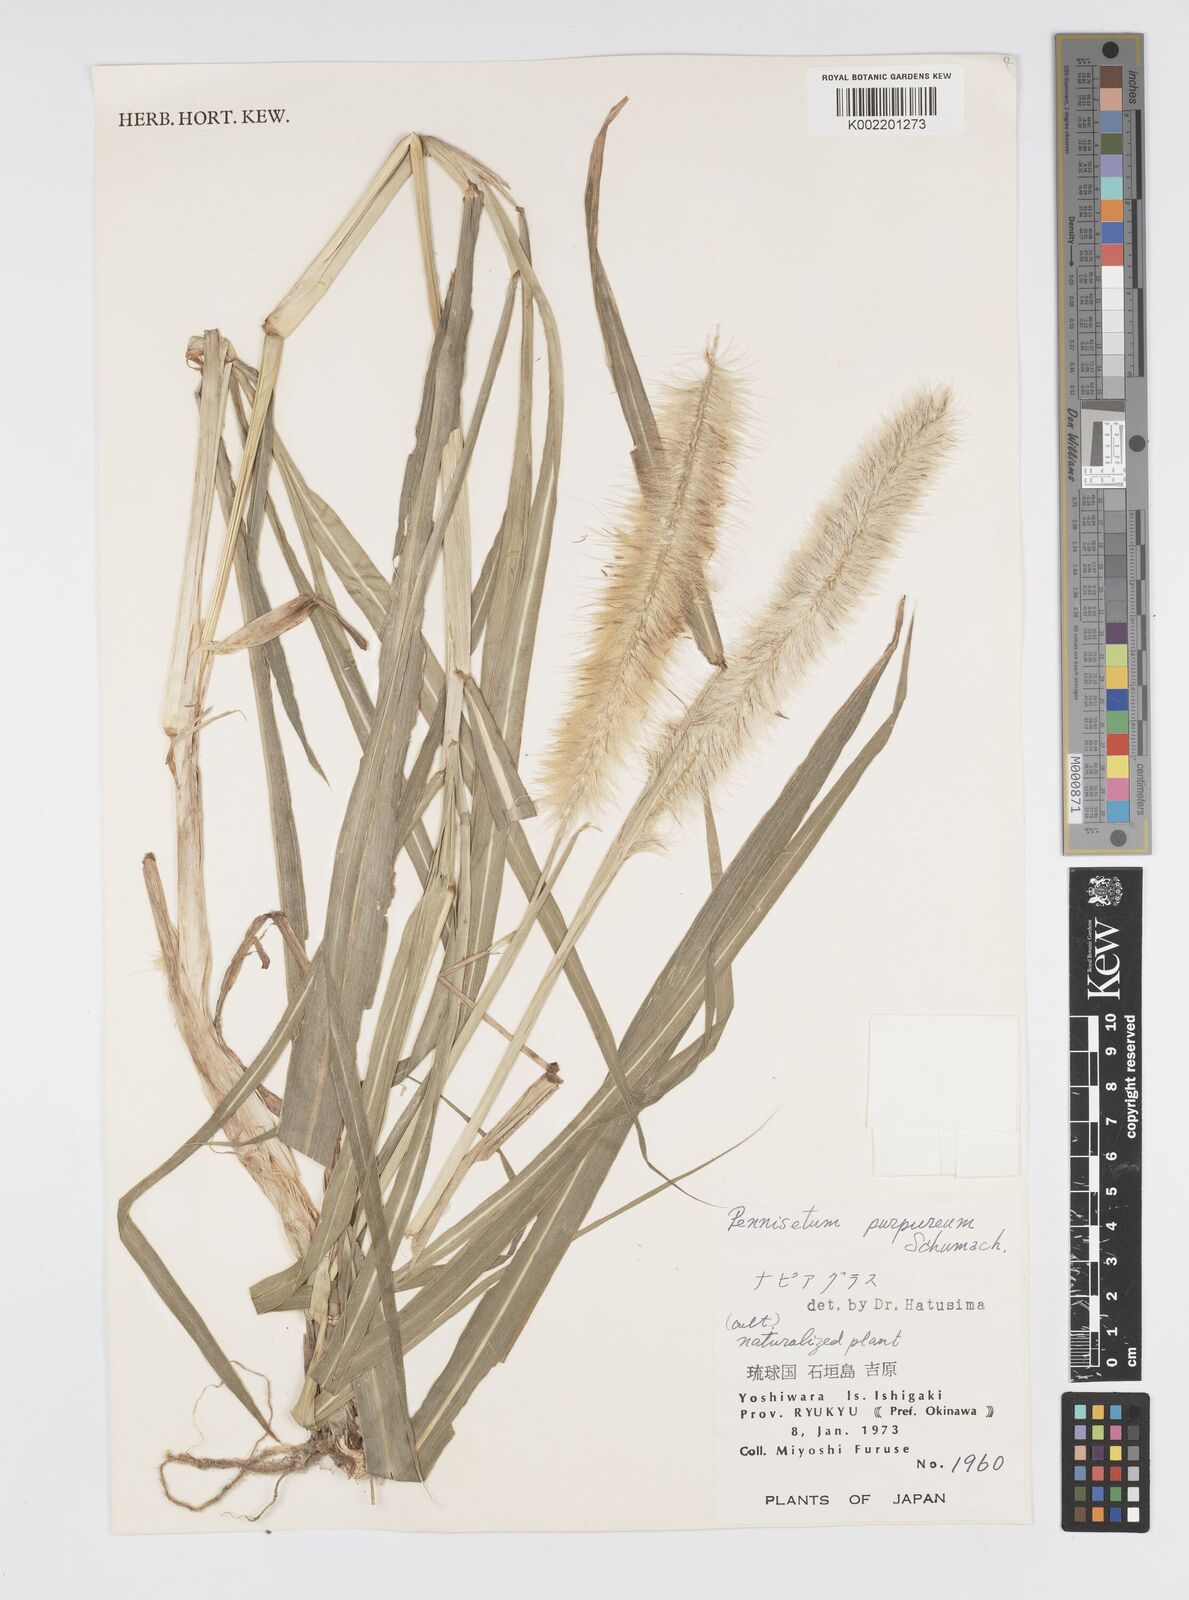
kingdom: Plantae
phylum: Tracheophyta
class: Liliopsida
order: Poales
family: Poaceae
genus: Cenchrus
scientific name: Cenchrus purpureus
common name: Elephant grass
